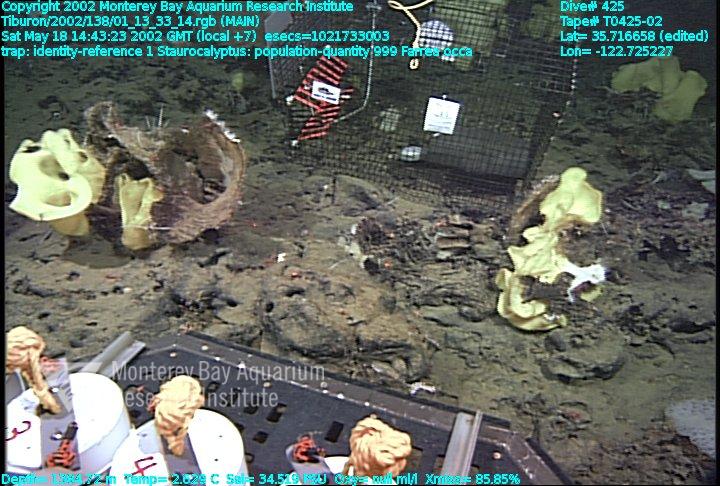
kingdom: Animalia
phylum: Porifera
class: Hexactinellida
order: Sceptrulophora
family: Farreidae
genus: Farrea
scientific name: Farrea occa
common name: Reversed glass sponge
